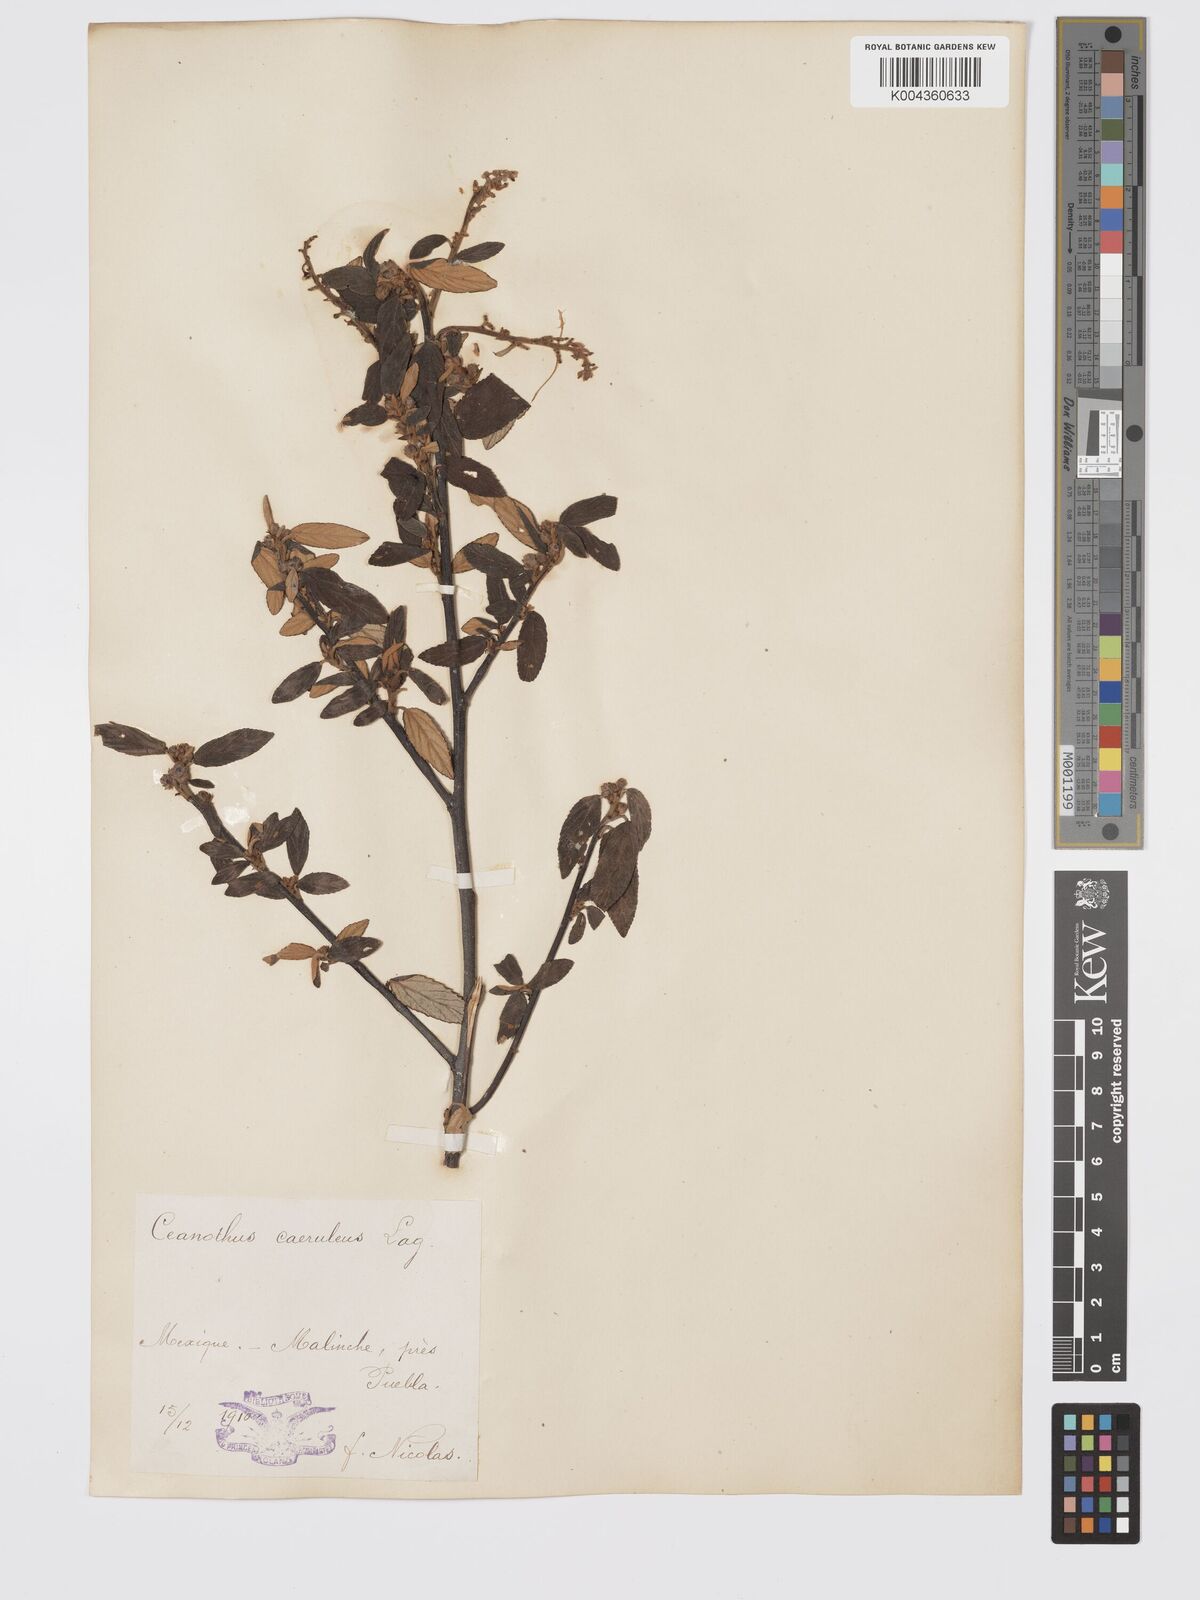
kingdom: Plantae
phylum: Tracheophyta
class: Magnoliopsida
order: Rosales
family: Rhamnaceae
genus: Ceanothus
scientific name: Ceanothus caeruleus
